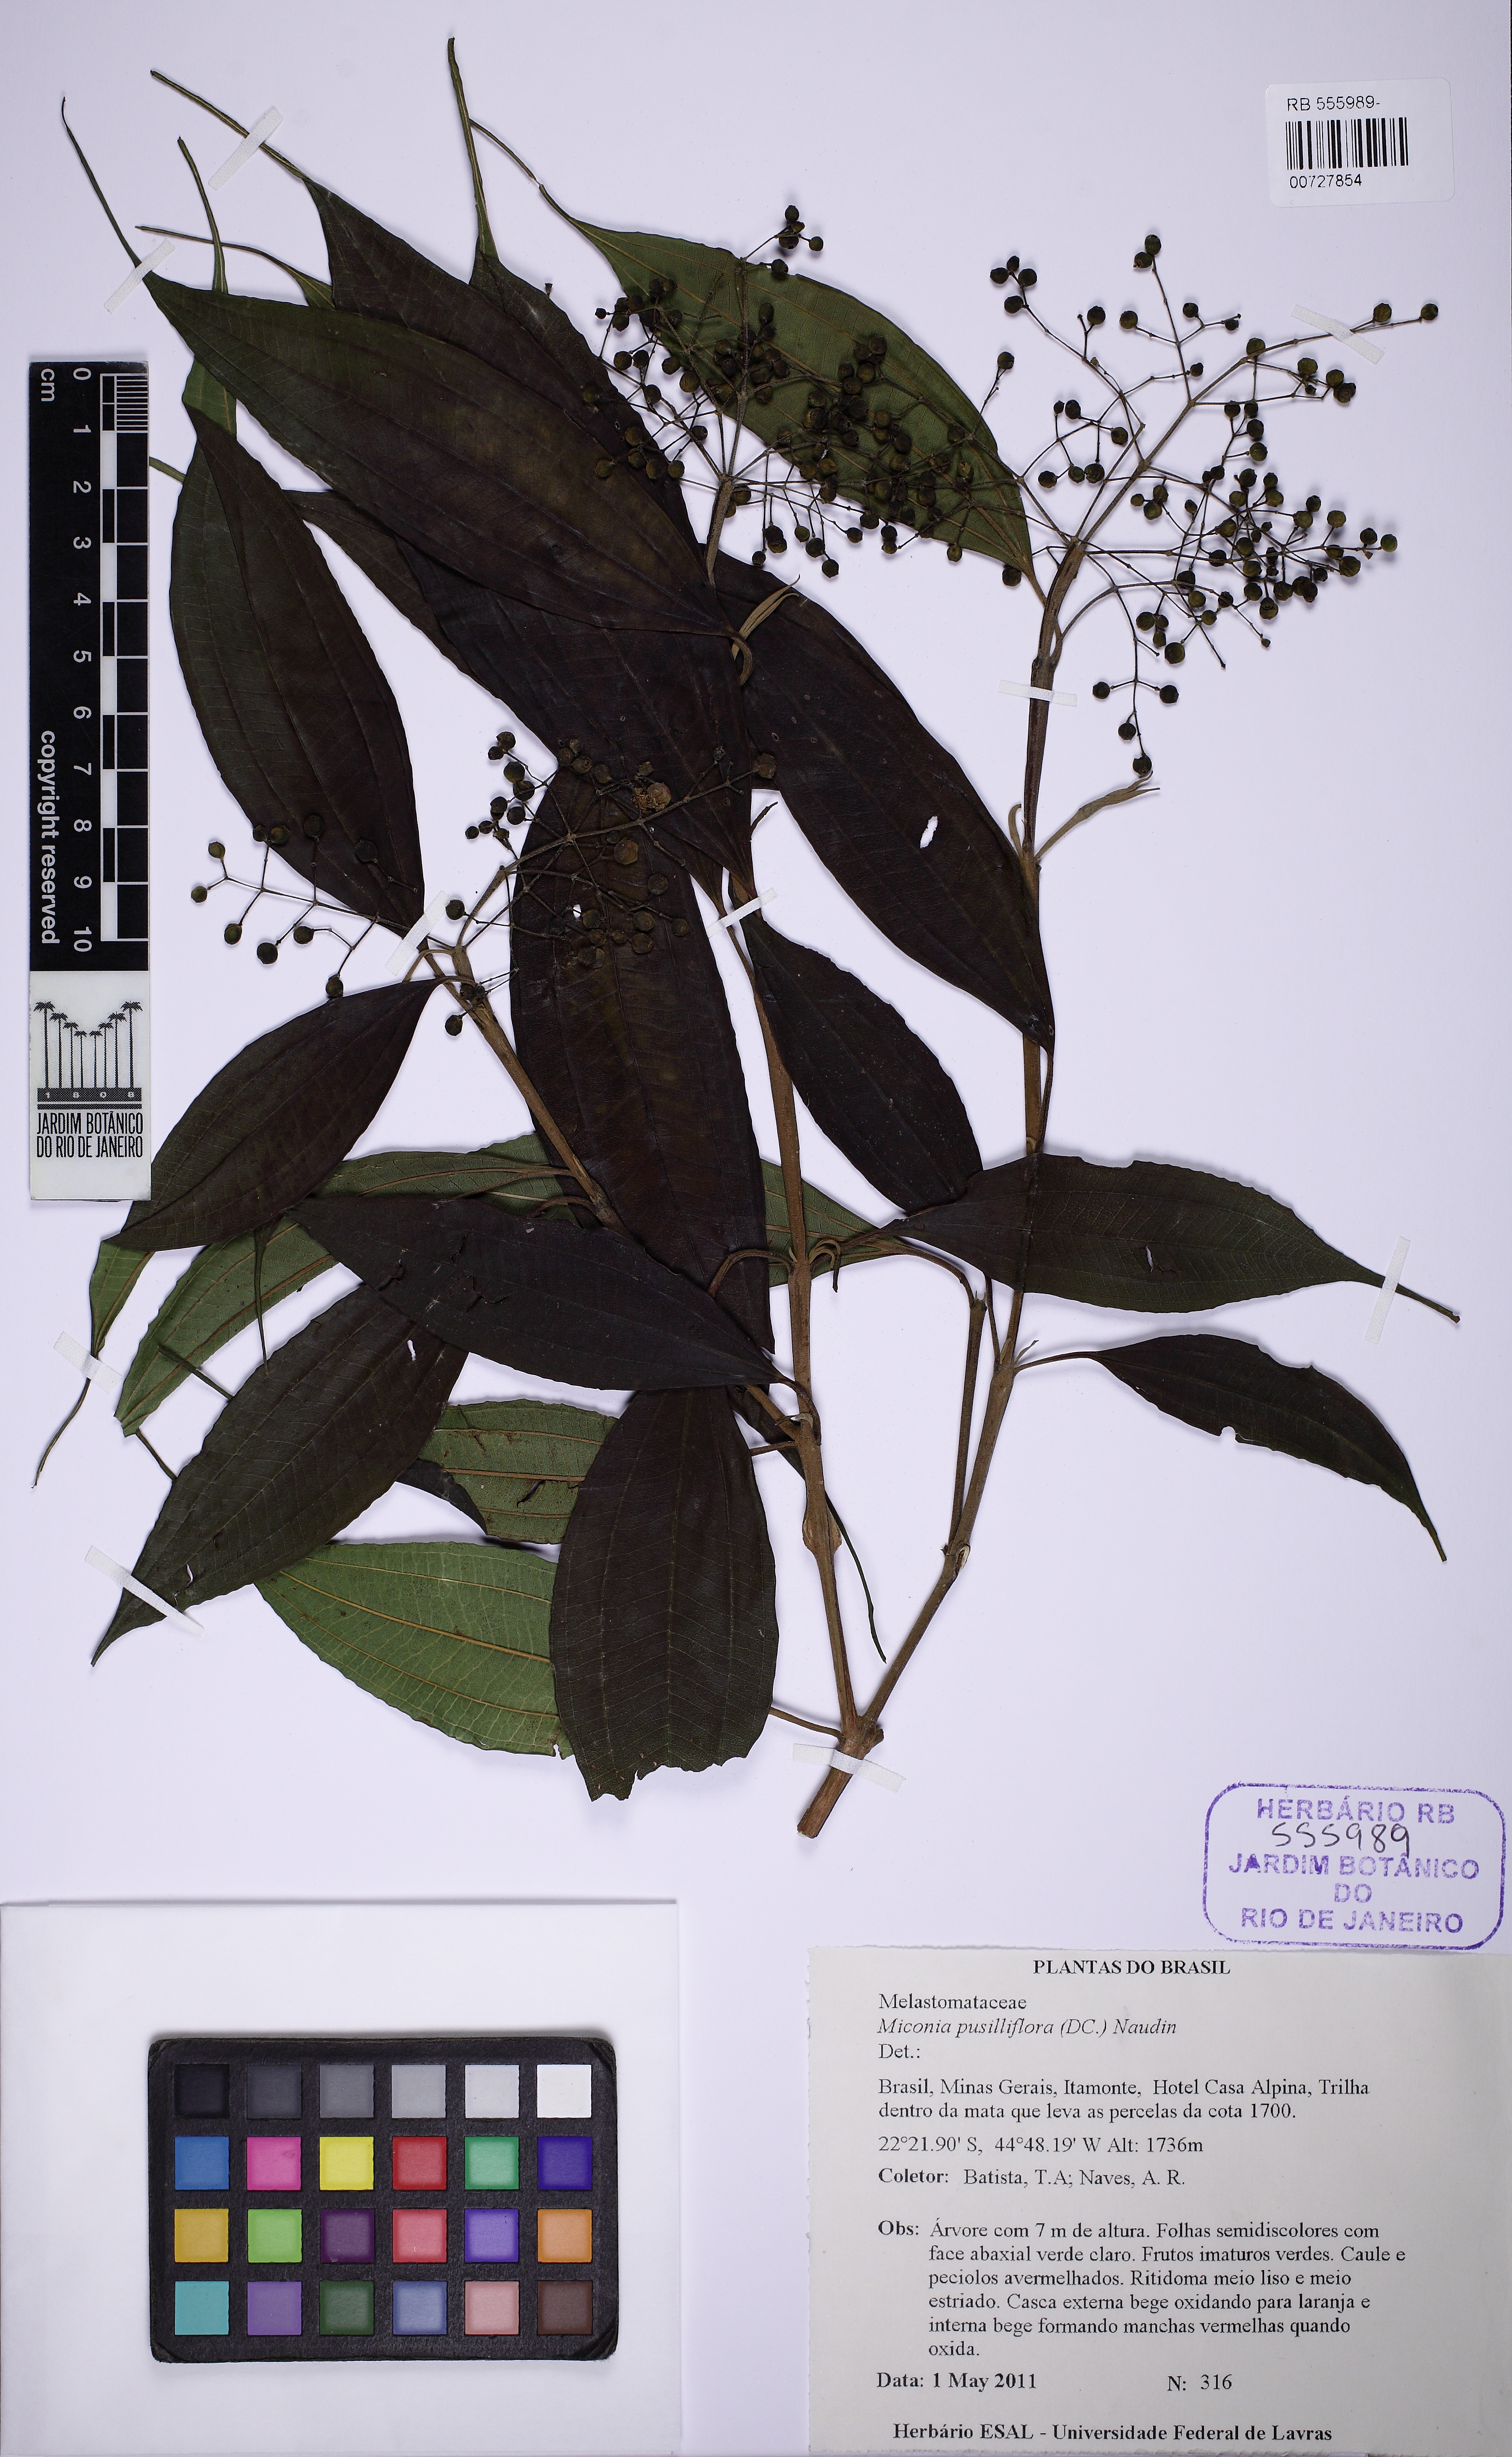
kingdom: Plantae
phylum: Tracheophyta
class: Magnoliopsida
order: Myrtales
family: Melastomataceae
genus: Miconia
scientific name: Miconia pusilliflora
